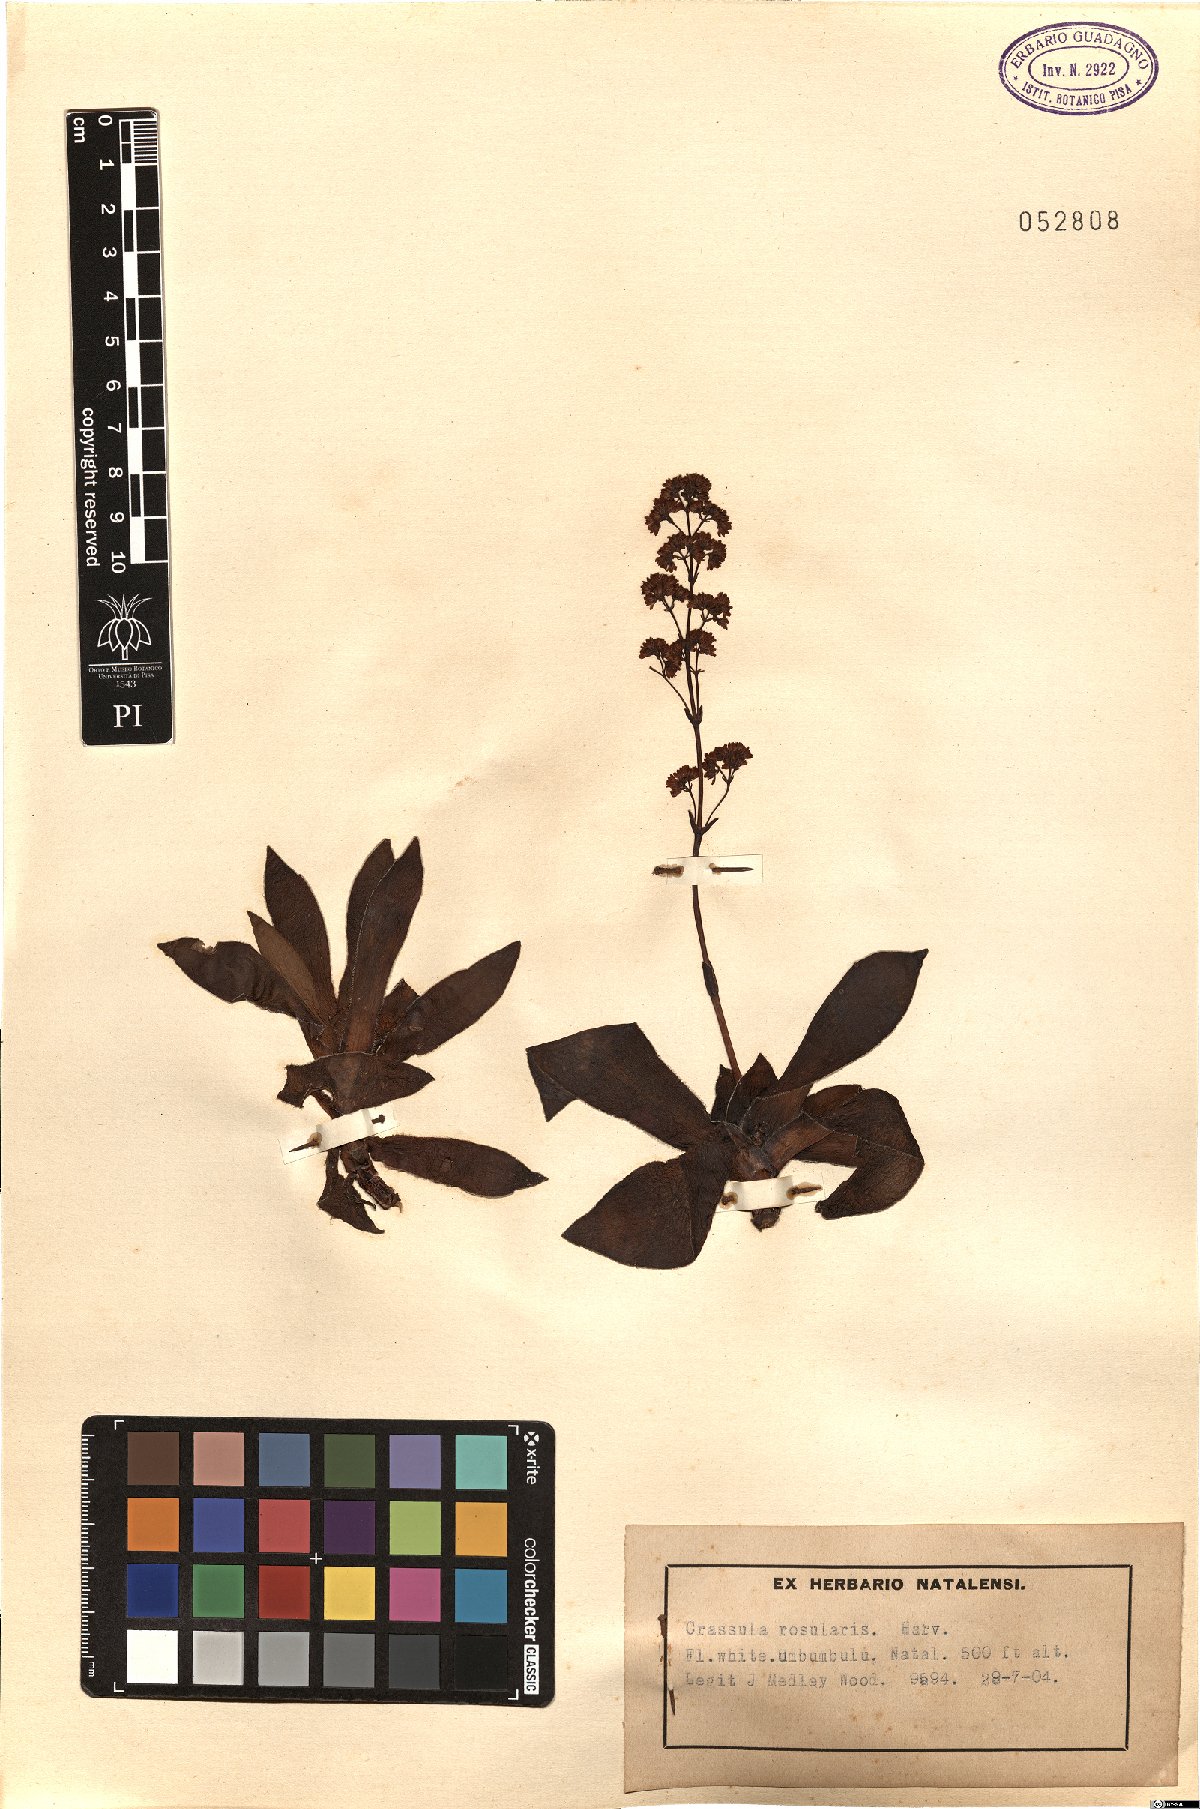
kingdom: Plantae
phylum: Tracheophyta
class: Magnoliopsida
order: Saxifragales
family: Crassulaceae
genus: Crassula
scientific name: Crassula orbicularis
